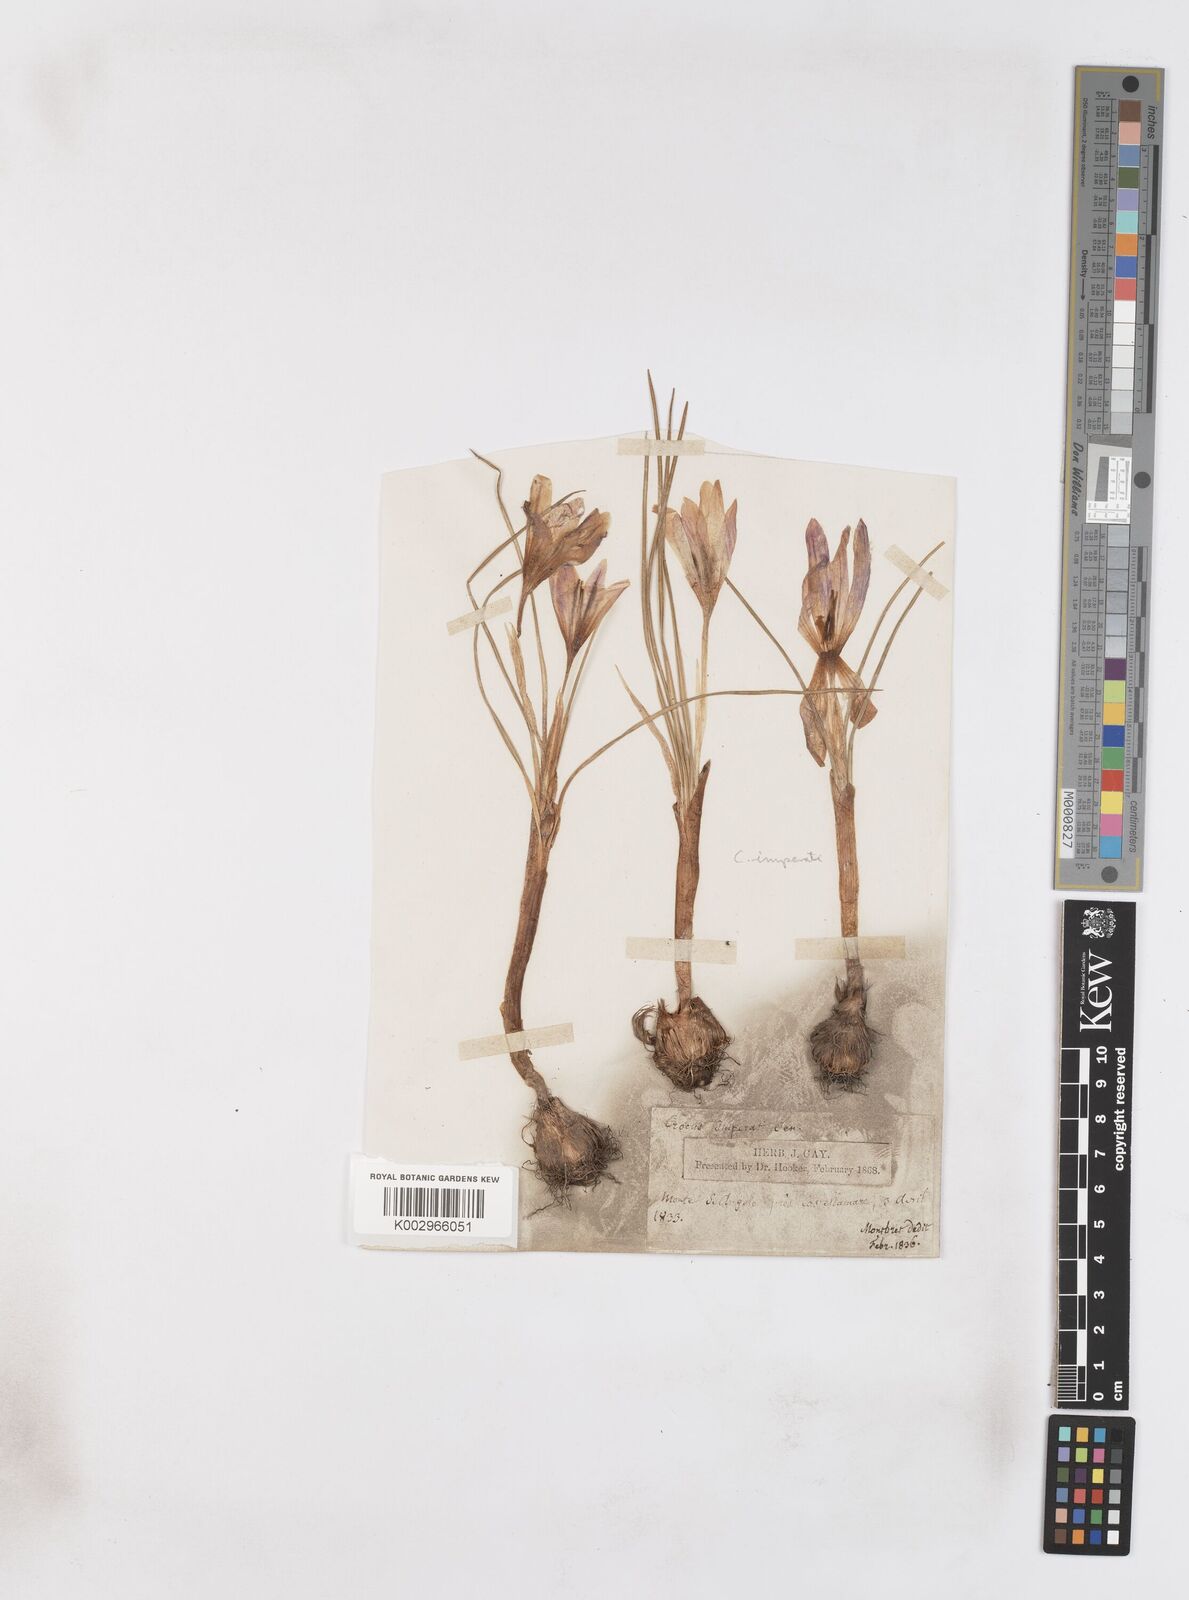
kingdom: Plantae
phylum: Tracheophyta
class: Liliopsida
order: Asparagales
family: Iridaceae
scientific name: Iridaceae
